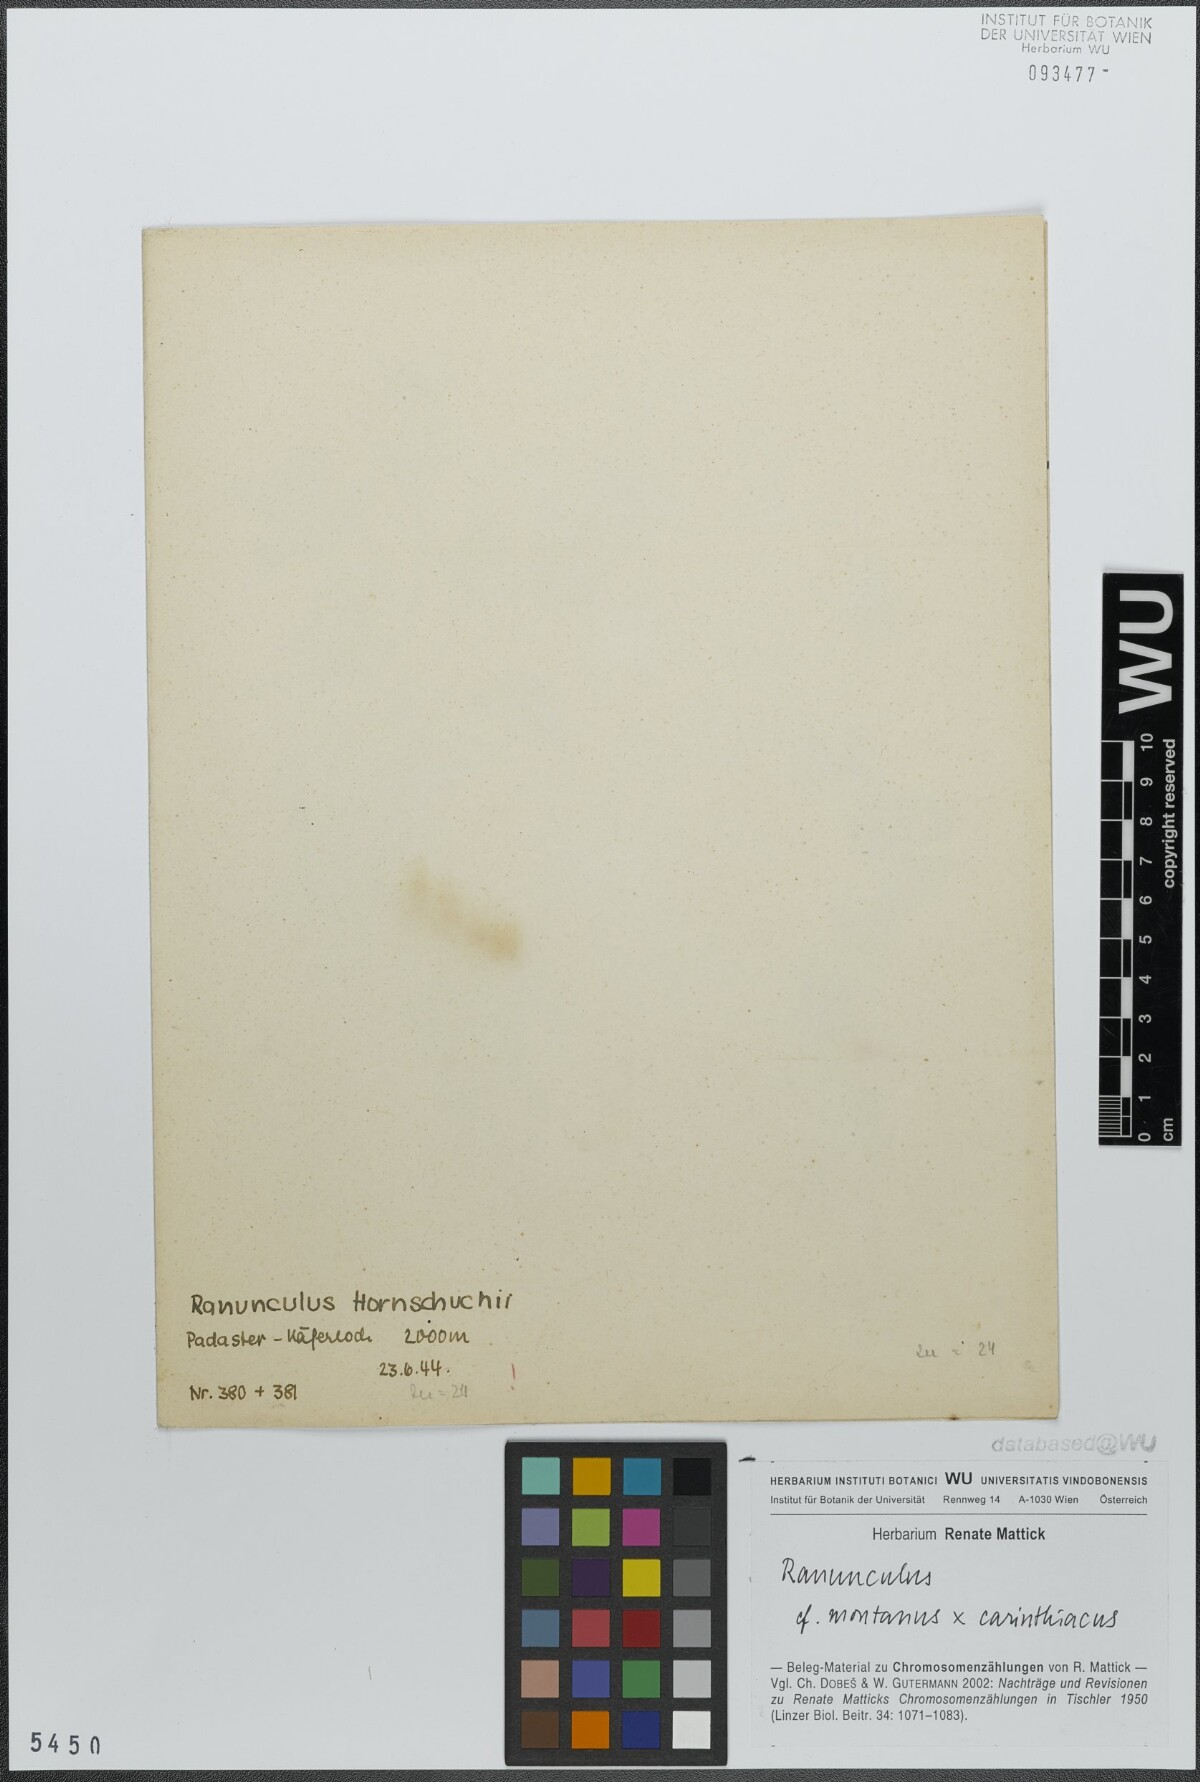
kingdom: Plantae
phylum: Tracheophyta
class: Magnoliopsida
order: Ranunculales
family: Ranunculaceae
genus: Ranunculus
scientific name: Ranunculus montanus
